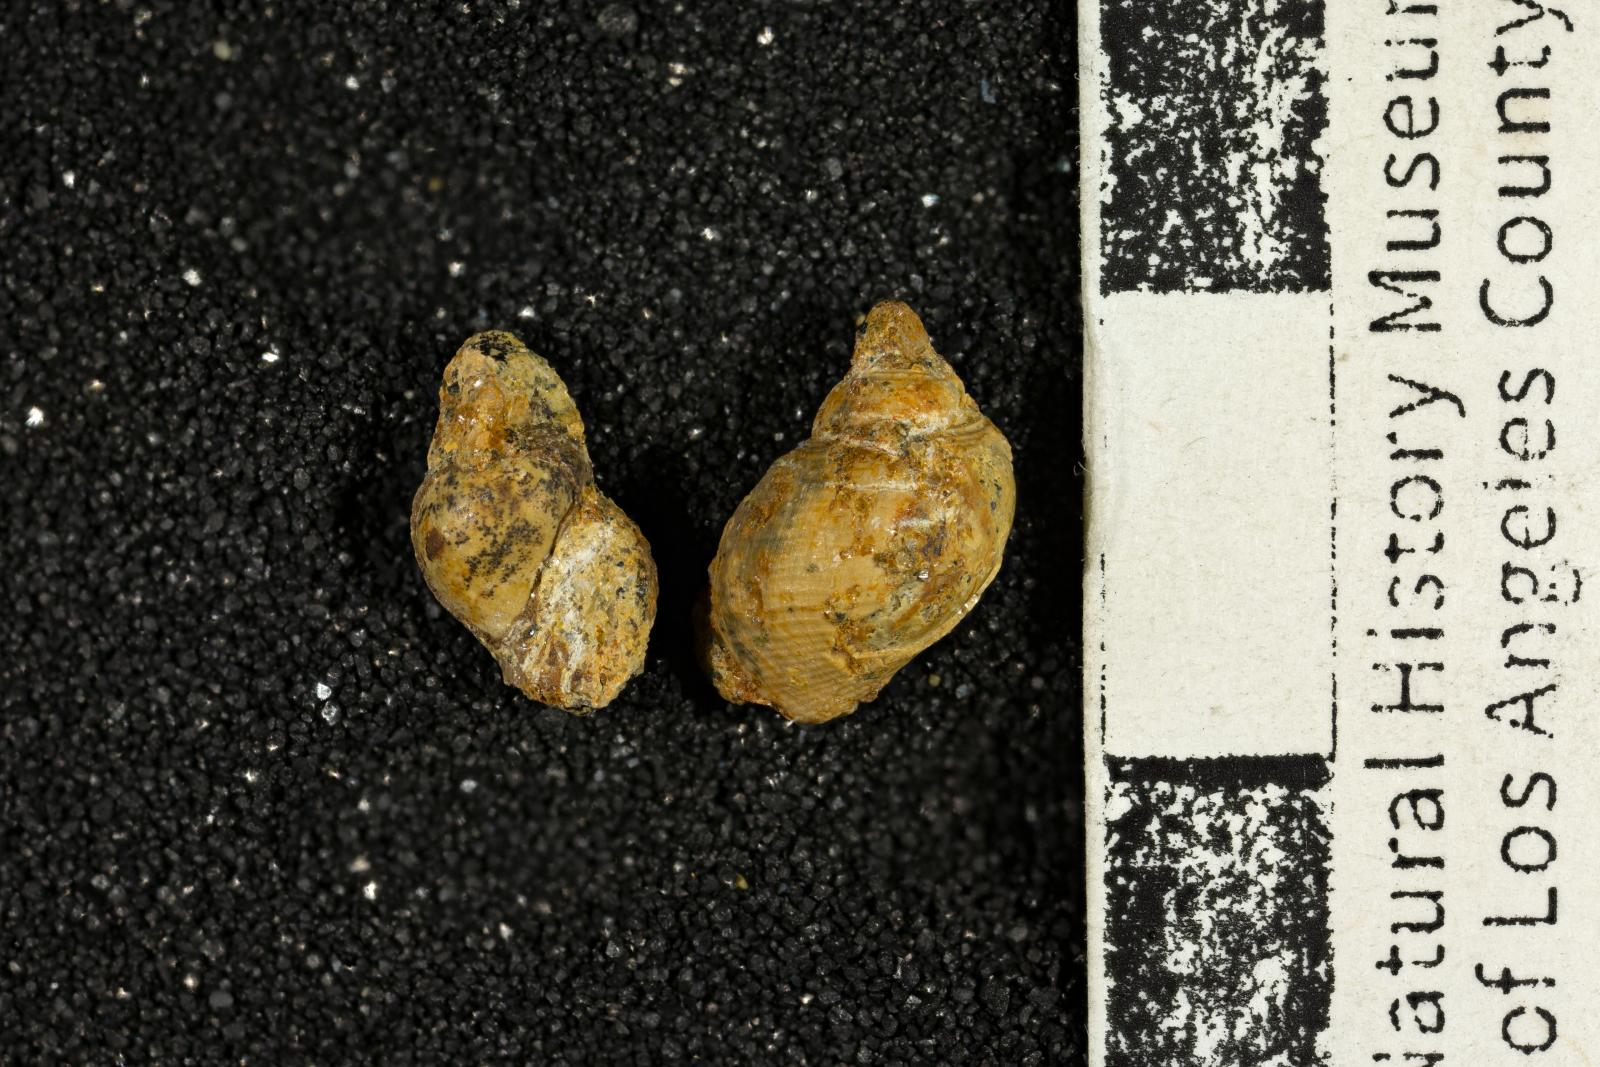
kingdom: Animalia
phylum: Mollusca
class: Gastropoda
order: Neogastropoda
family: Cancellariidae
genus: Mataxa
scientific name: Mataxa arida
